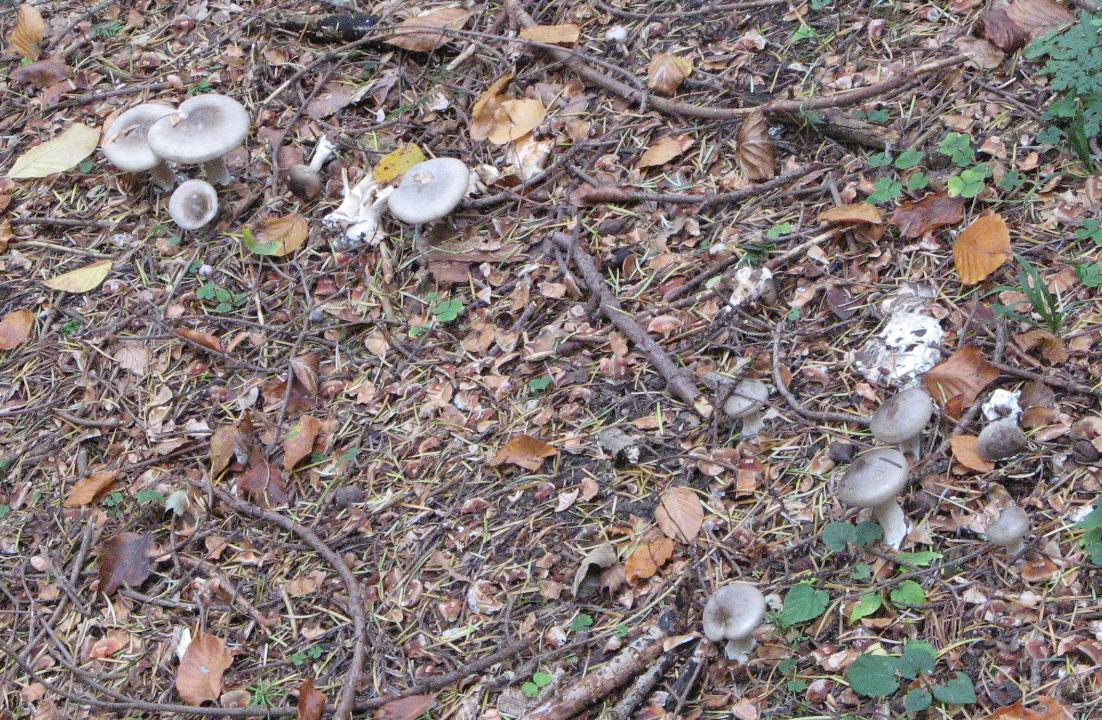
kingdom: Fungi
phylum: Basidiomycota
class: Agaricomycetes
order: Agaricales
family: Tricholomataceae
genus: Clitocybe
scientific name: Clitocybe nebularis
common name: tåge-tragthat
